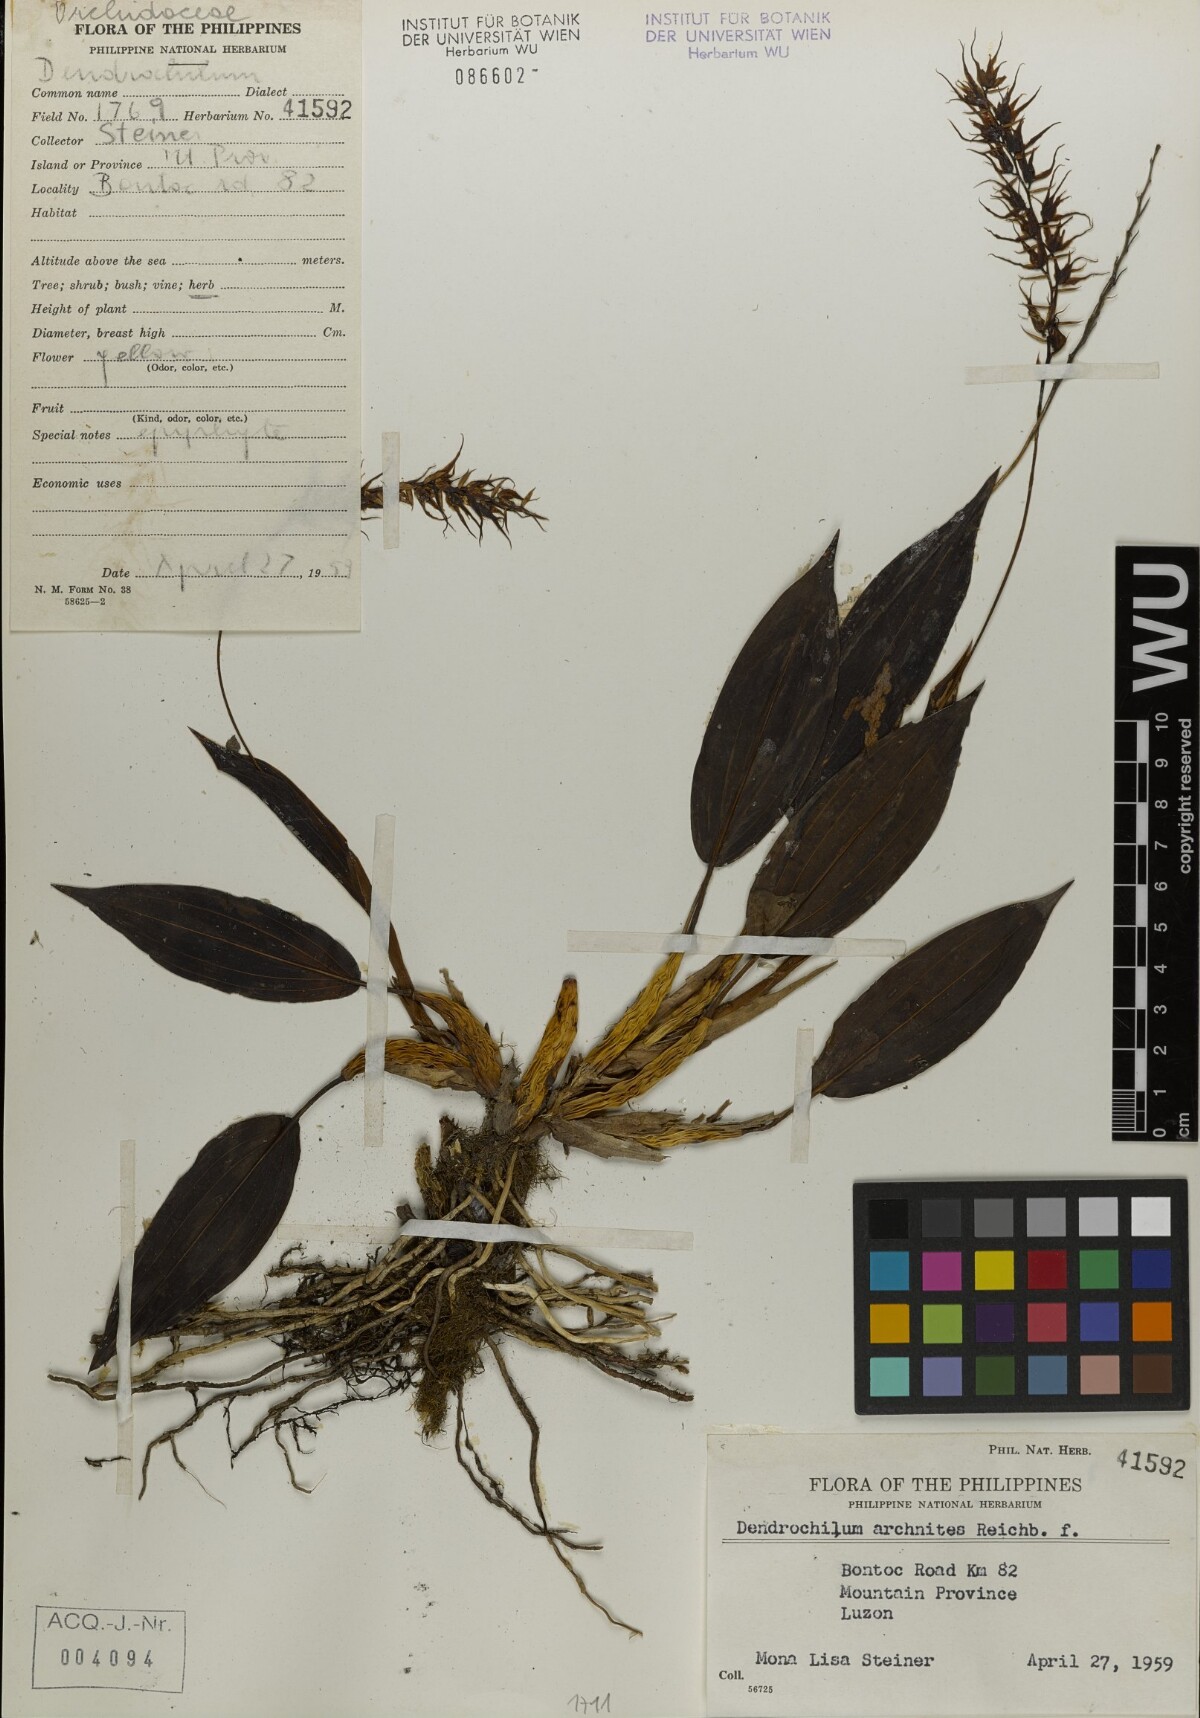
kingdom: Plantae
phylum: Tracheophyta
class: Liliopsida
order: Asparagales
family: Orchidaceae
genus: Coelogyne
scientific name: Coelogyne arachnites
